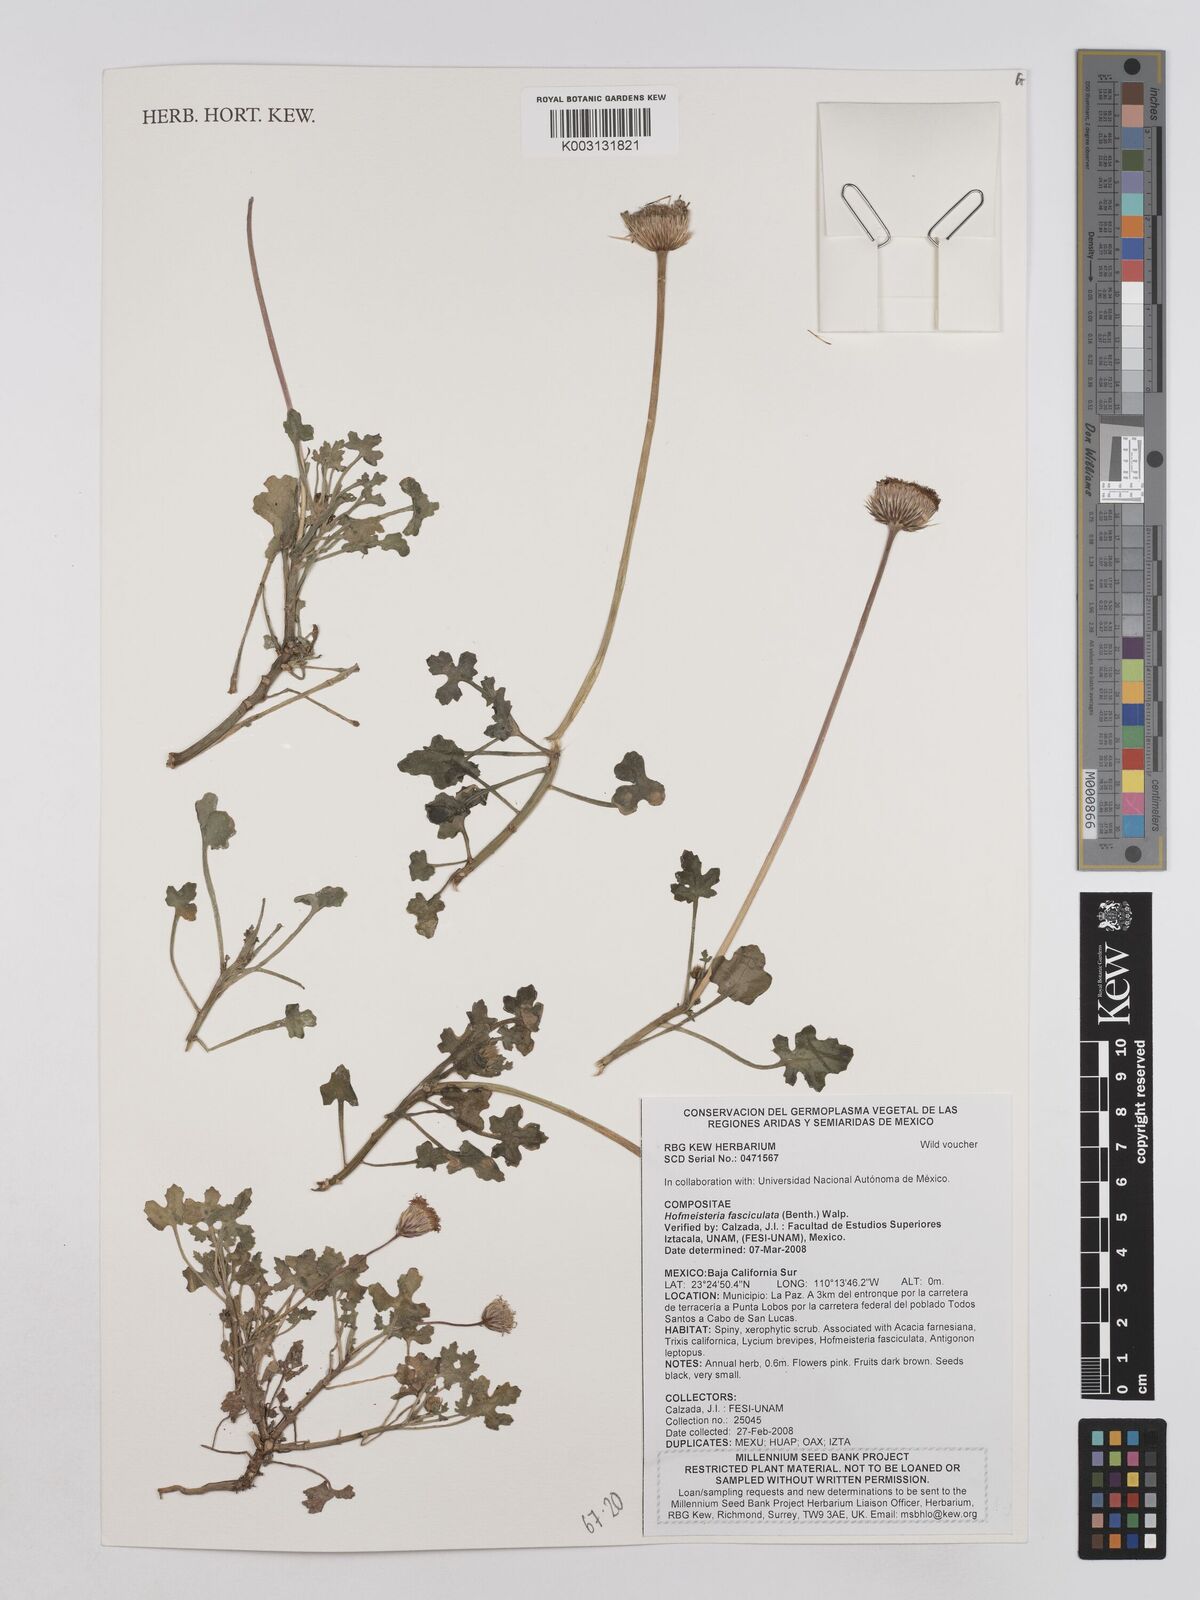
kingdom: Plantae
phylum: Tracheophyta
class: Magnoliopsida
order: Asterales
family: Asteraceae
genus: Hofmeisteria
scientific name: Hofmeisteria fasciculata
